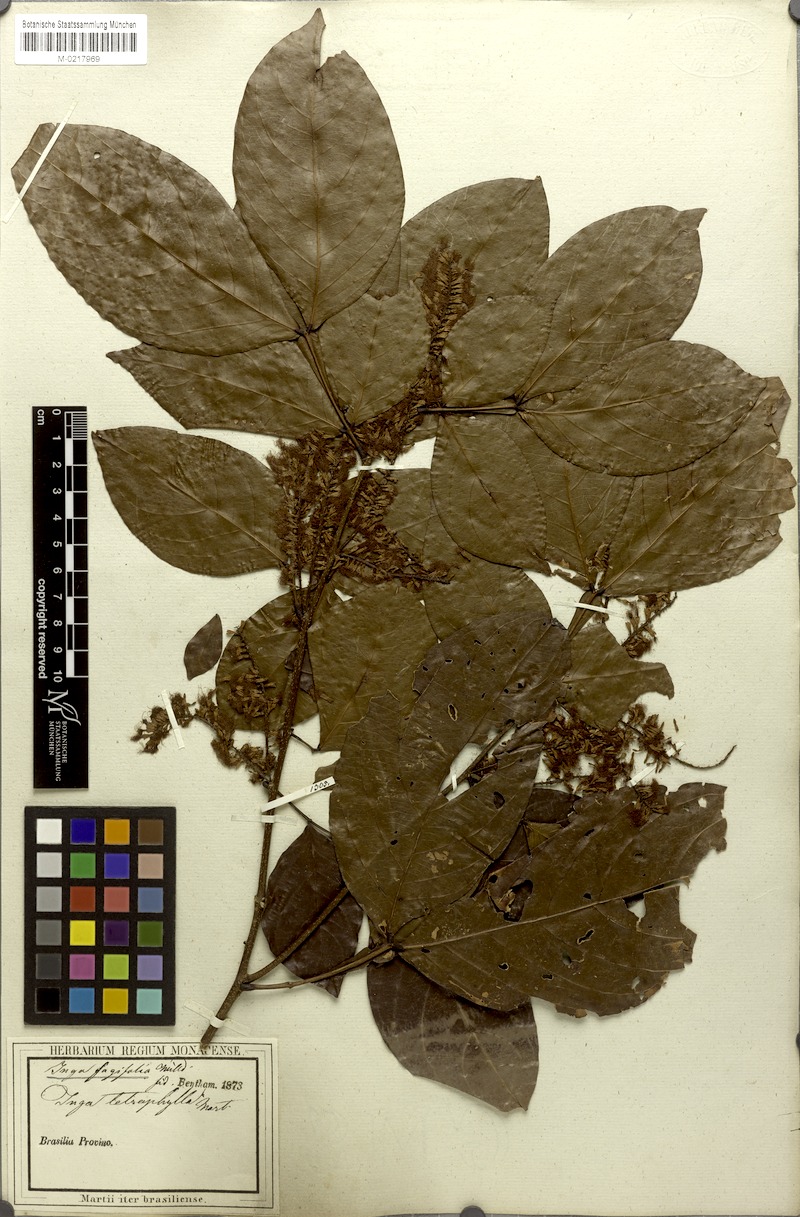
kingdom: Plantae
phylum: Tracheophyta
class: Magnoliopsida
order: Fabales
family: Fabaceae
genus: Inga
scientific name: Inga laurina
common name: Red wood
